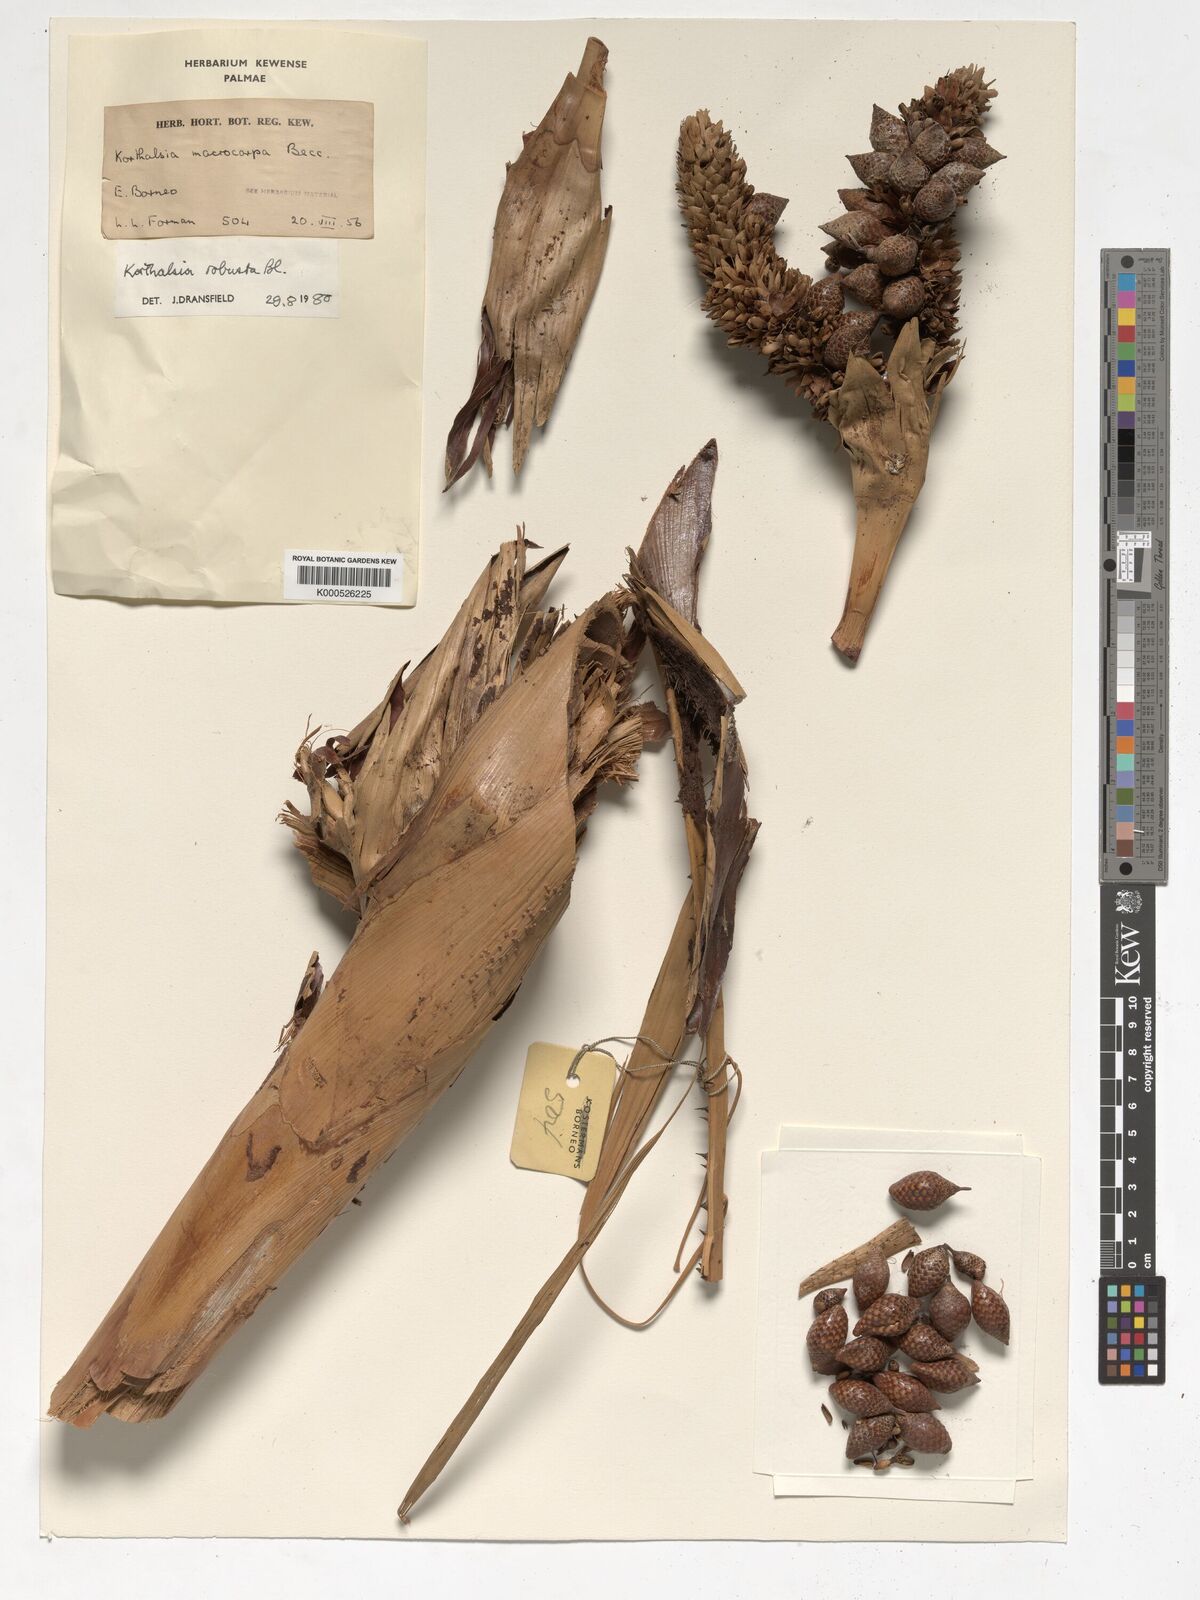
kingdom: Plantae
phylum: Tracheophyta
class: Liliopsida
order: Arecales
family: Arecaceae
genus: Korthalsia
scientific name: Korthalsia robusta
